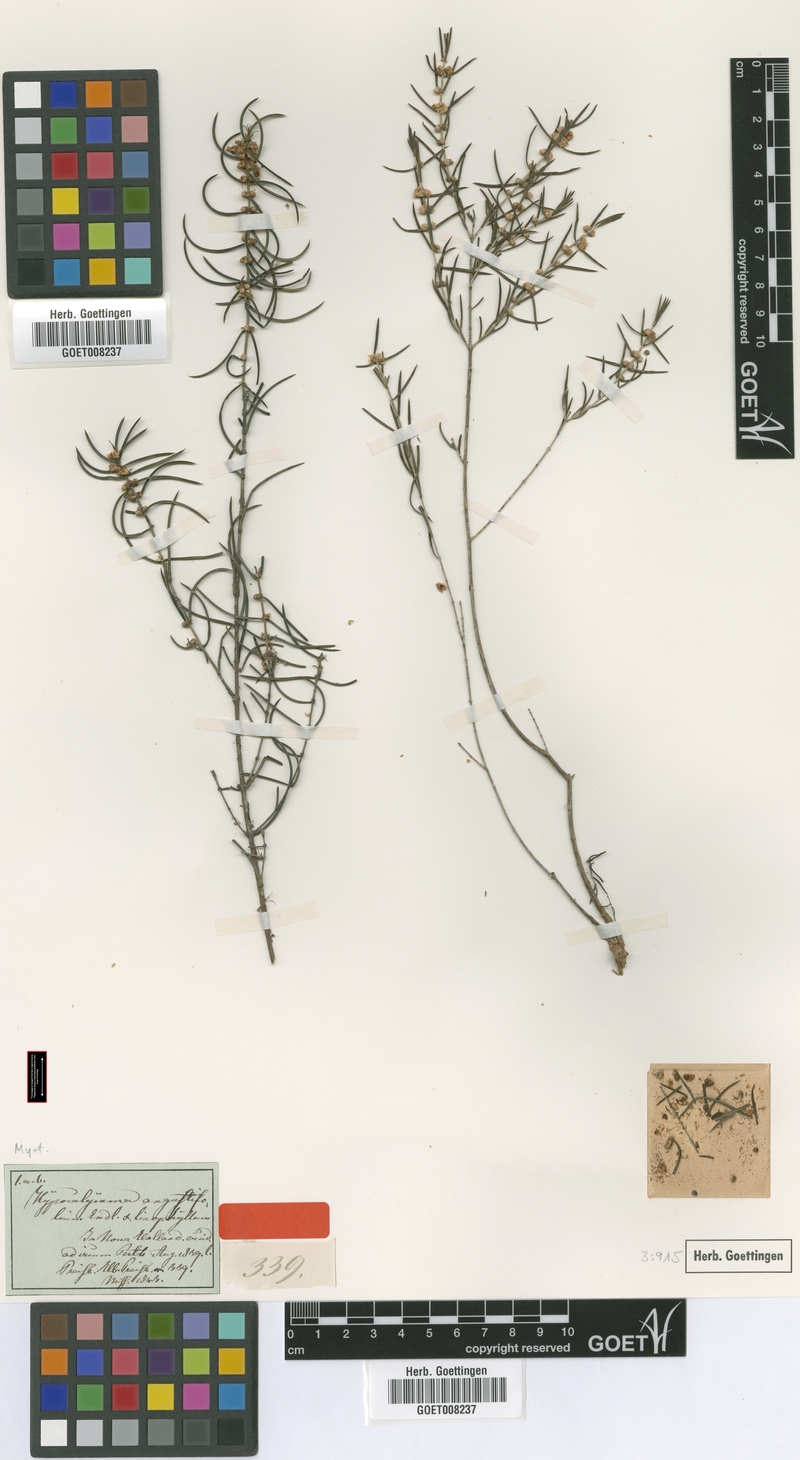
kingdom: Plantae
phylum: Tracheophyta
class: Magnoliopsida
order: Myrtales
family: Myrtaceae
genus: Hypocalymma
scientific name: Hypocalymma angustifolium
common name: White myrtle
